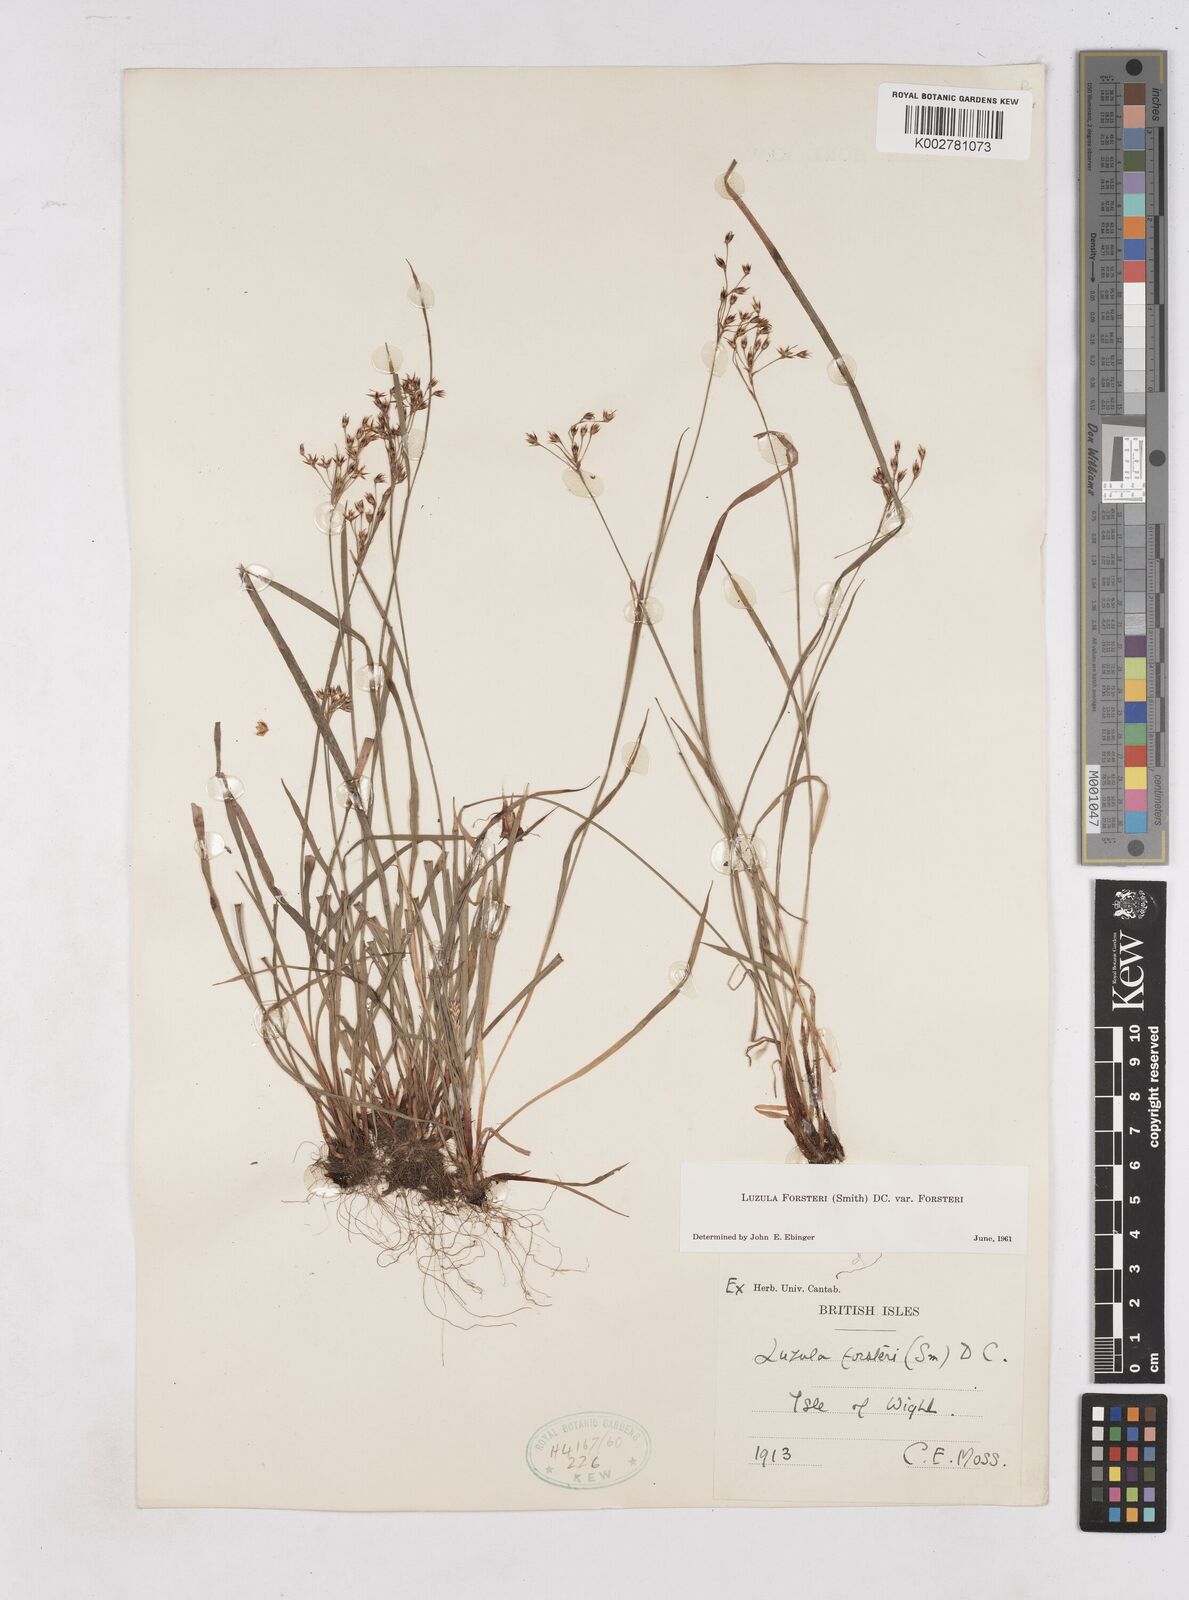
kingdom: Plantae
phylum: Tracheophyta
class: Liliopsida
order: Poales
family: Juncaceae
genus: Luzula
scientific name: Luzula forsteri
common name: Southern wood-rush
